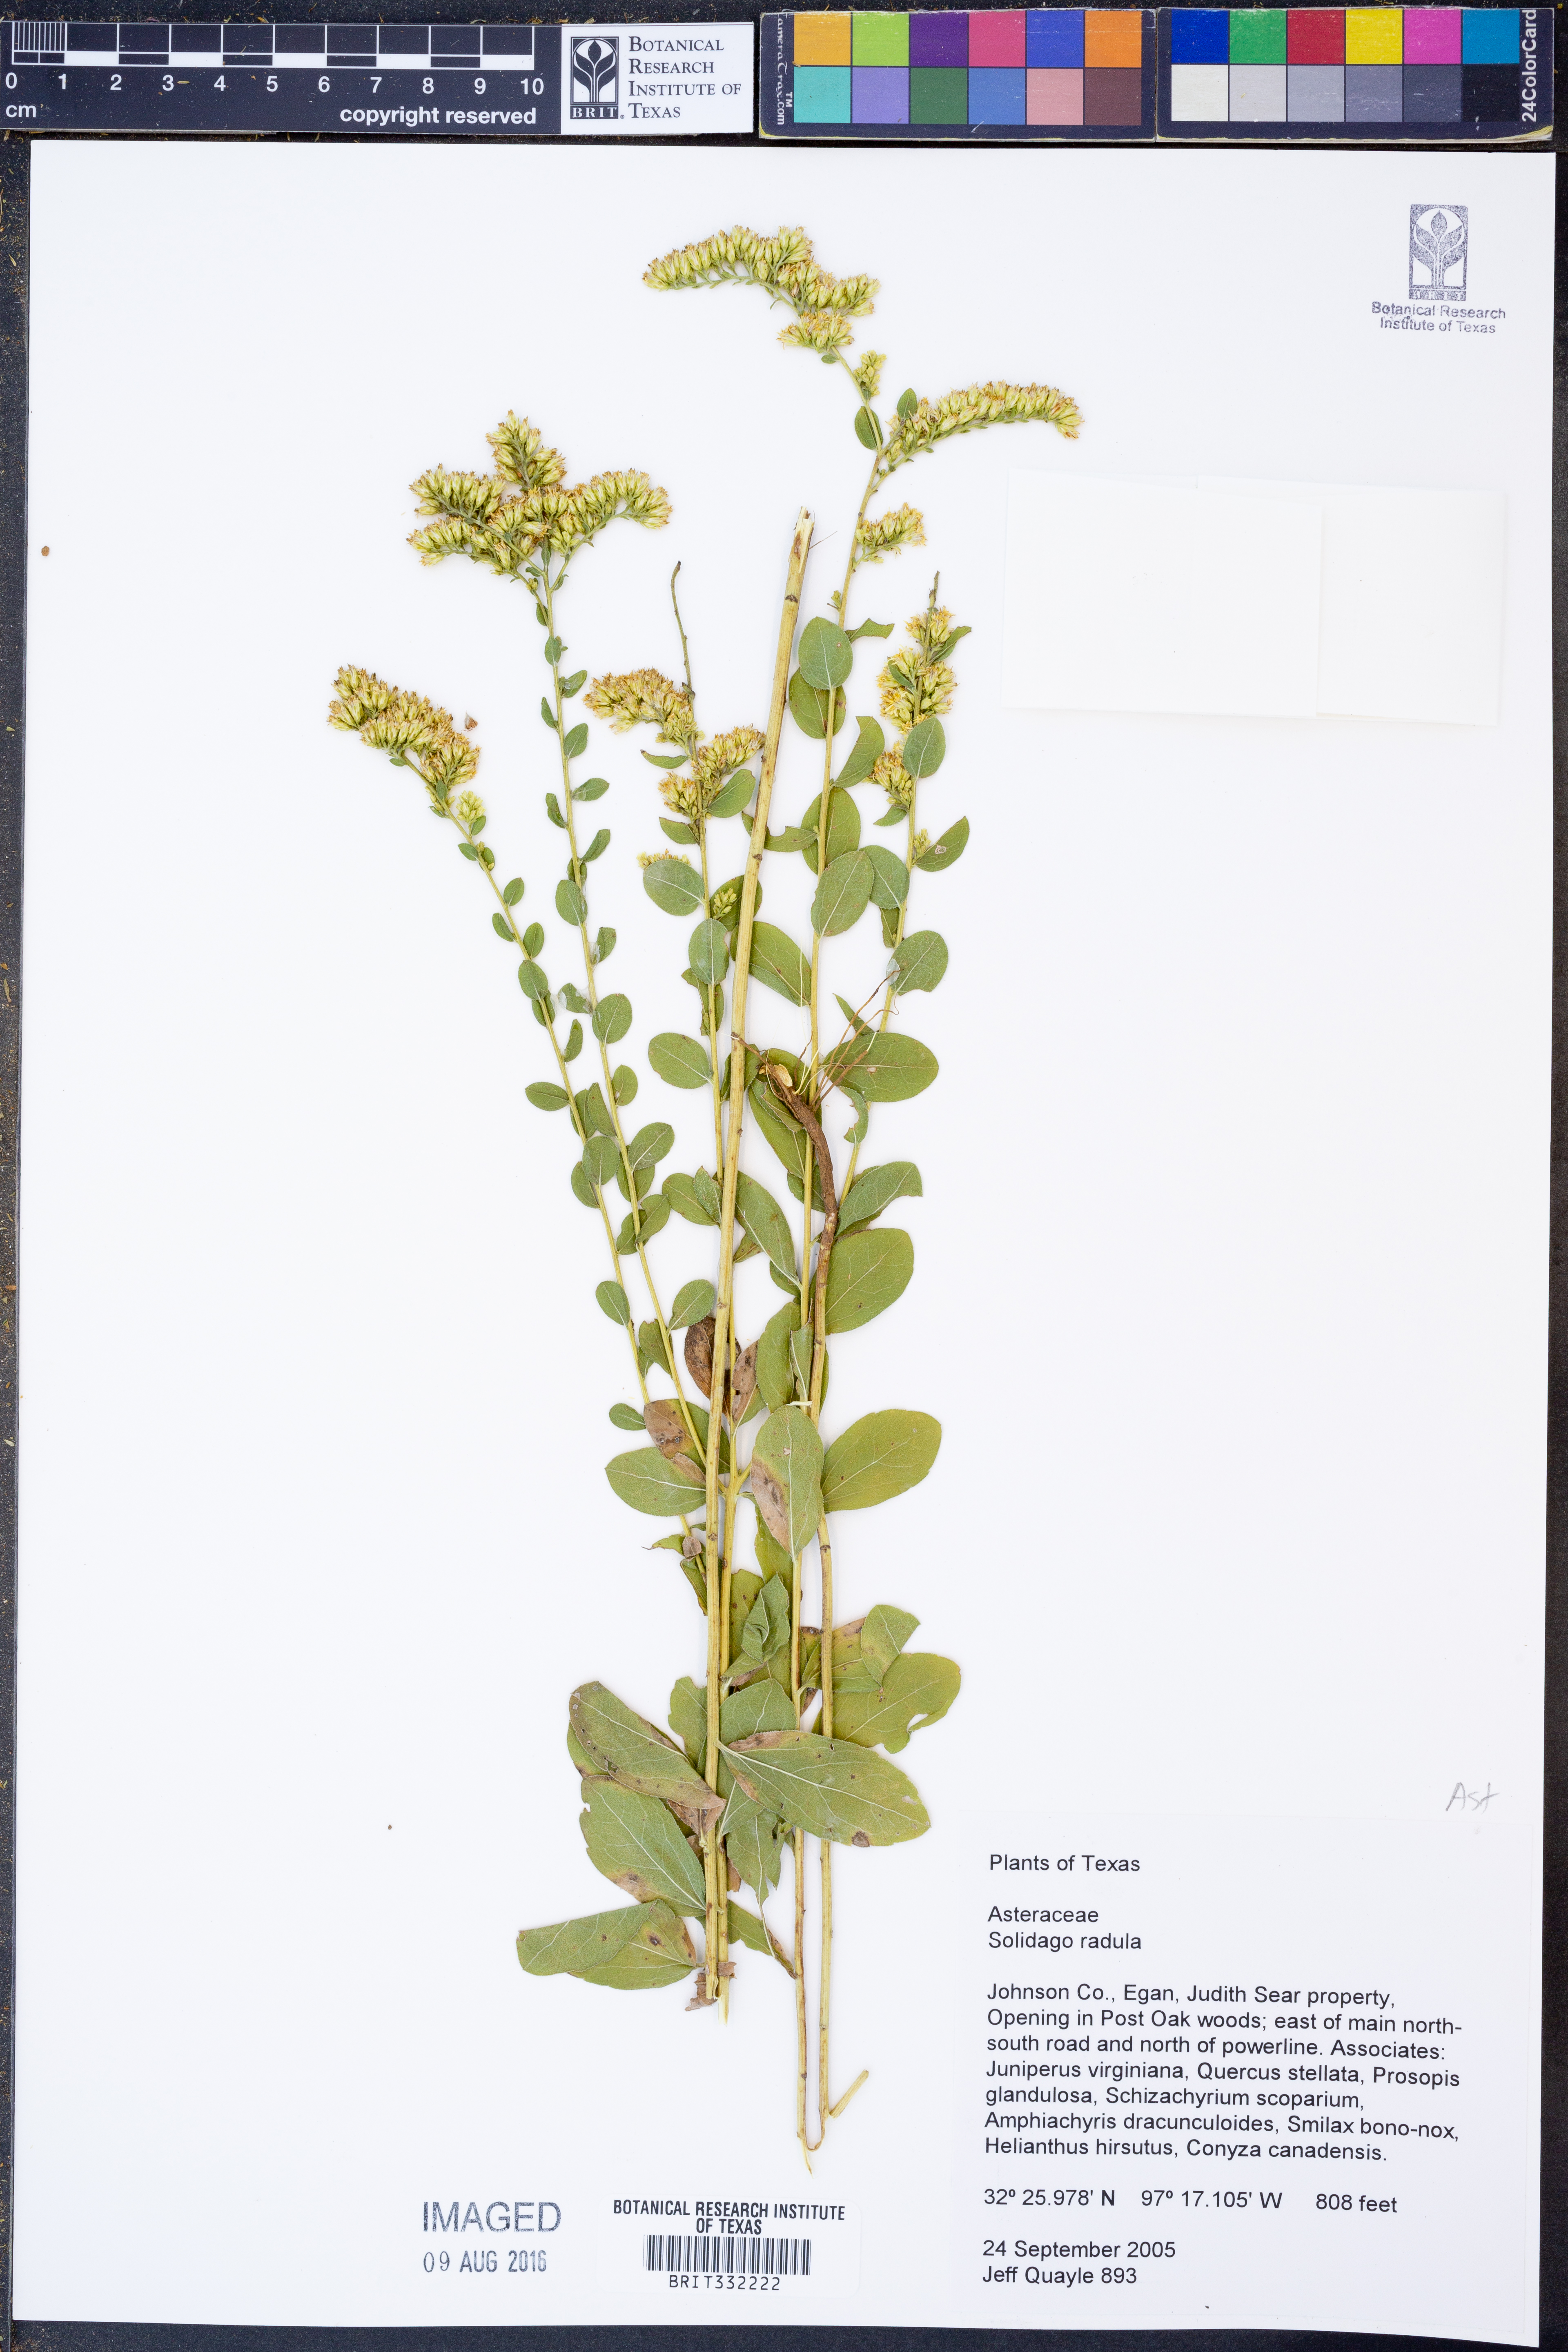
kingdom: Plantae
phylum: Tracheophyta
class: Magnoliopsida
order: Asterales
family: Asteraceae
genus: Solidago
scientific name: Solidago radula
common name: Western rough goldenrod
